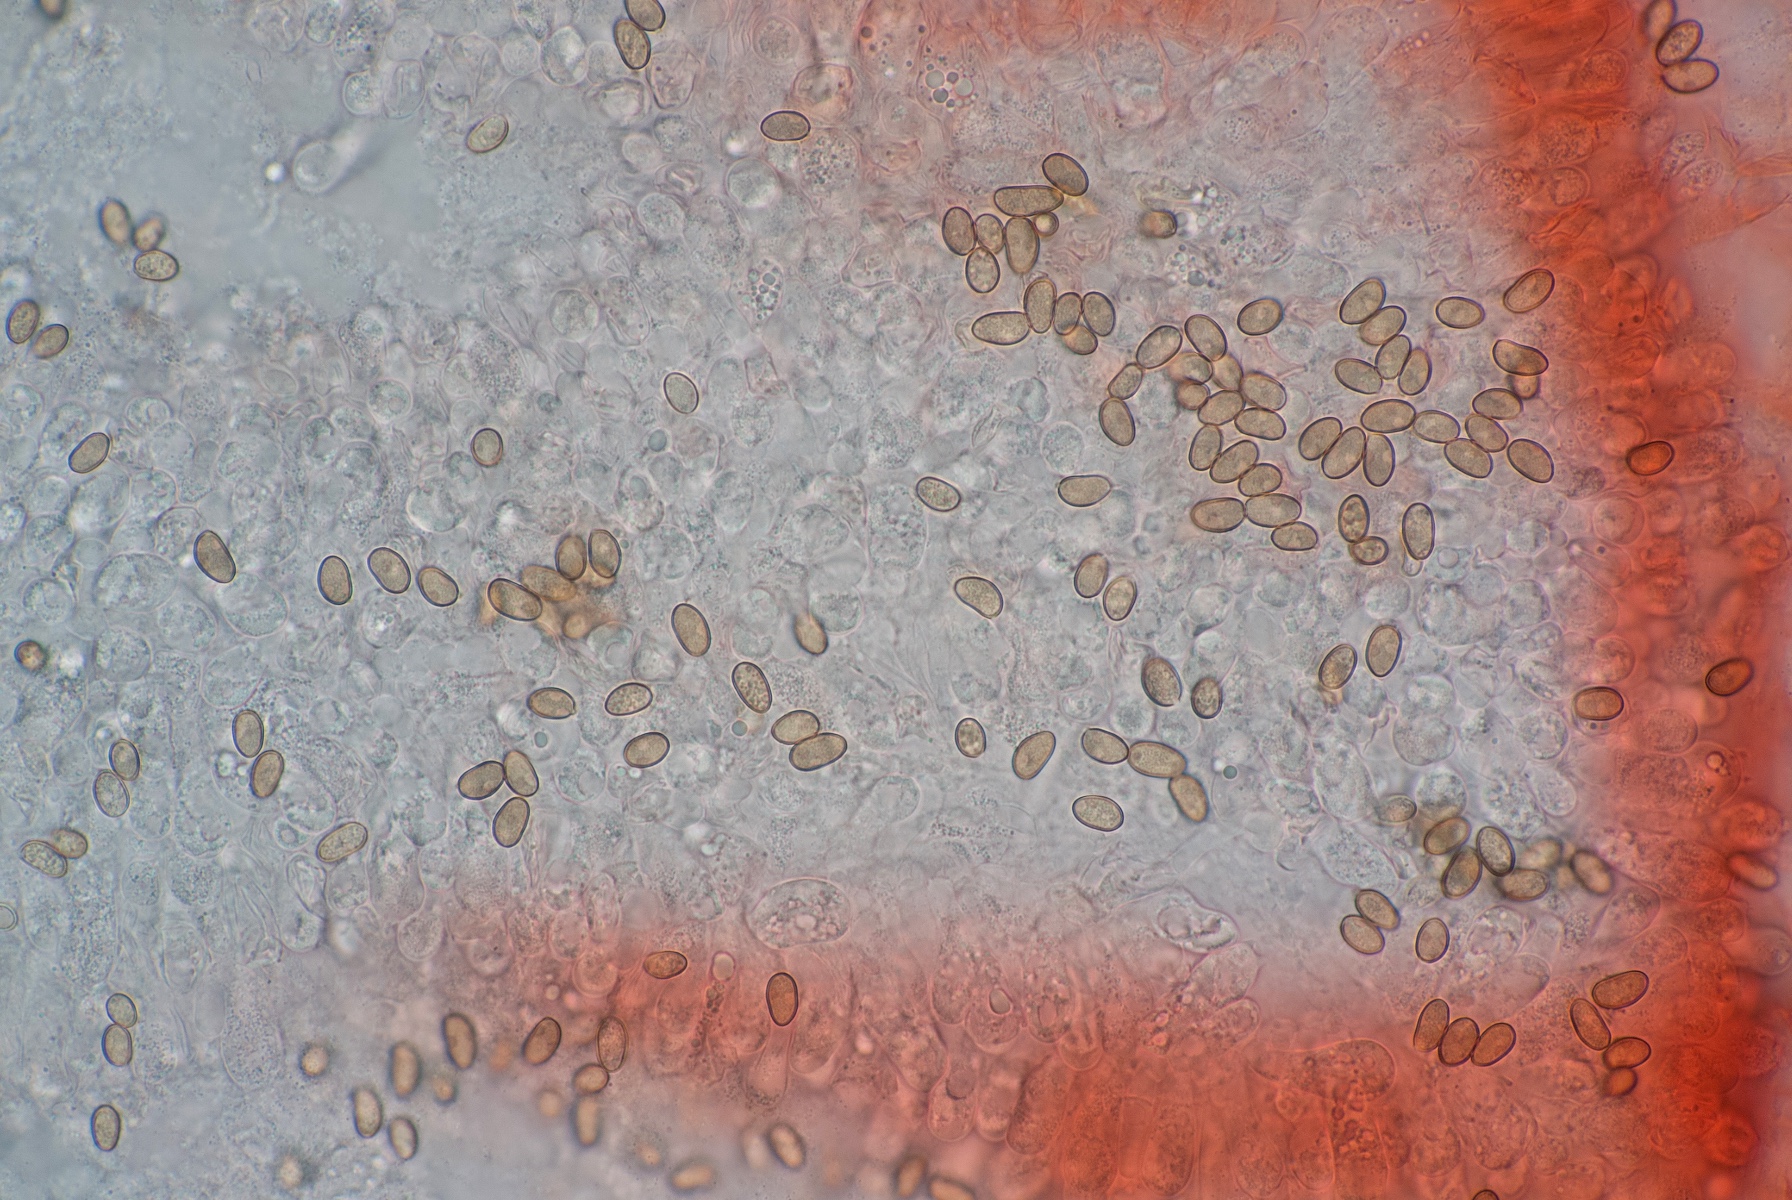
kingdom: Fungi
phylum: Basidiomycota
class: Agaricomycetes
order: Agaricales
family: Inocybaceae
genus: Inosperma
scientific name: Inosperma
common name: strågul trævlhat
